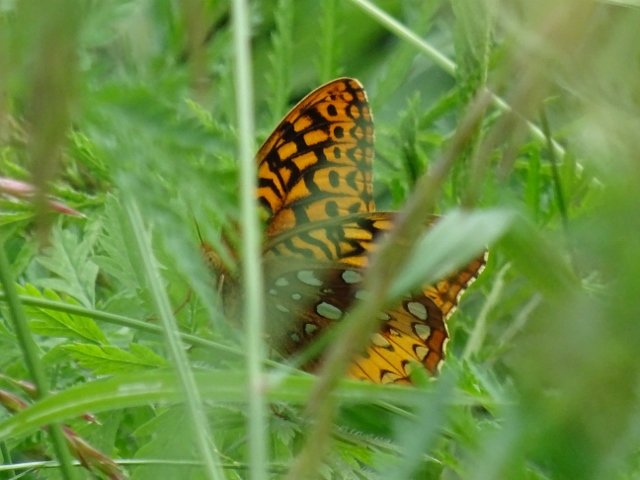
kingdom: Animalia
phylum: Arthropoda
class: Insecta
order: Lepidoptera
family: Nymphalidae
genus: Speyeria
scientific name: Speyeria cybele
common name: Great Spangled Fritillary
